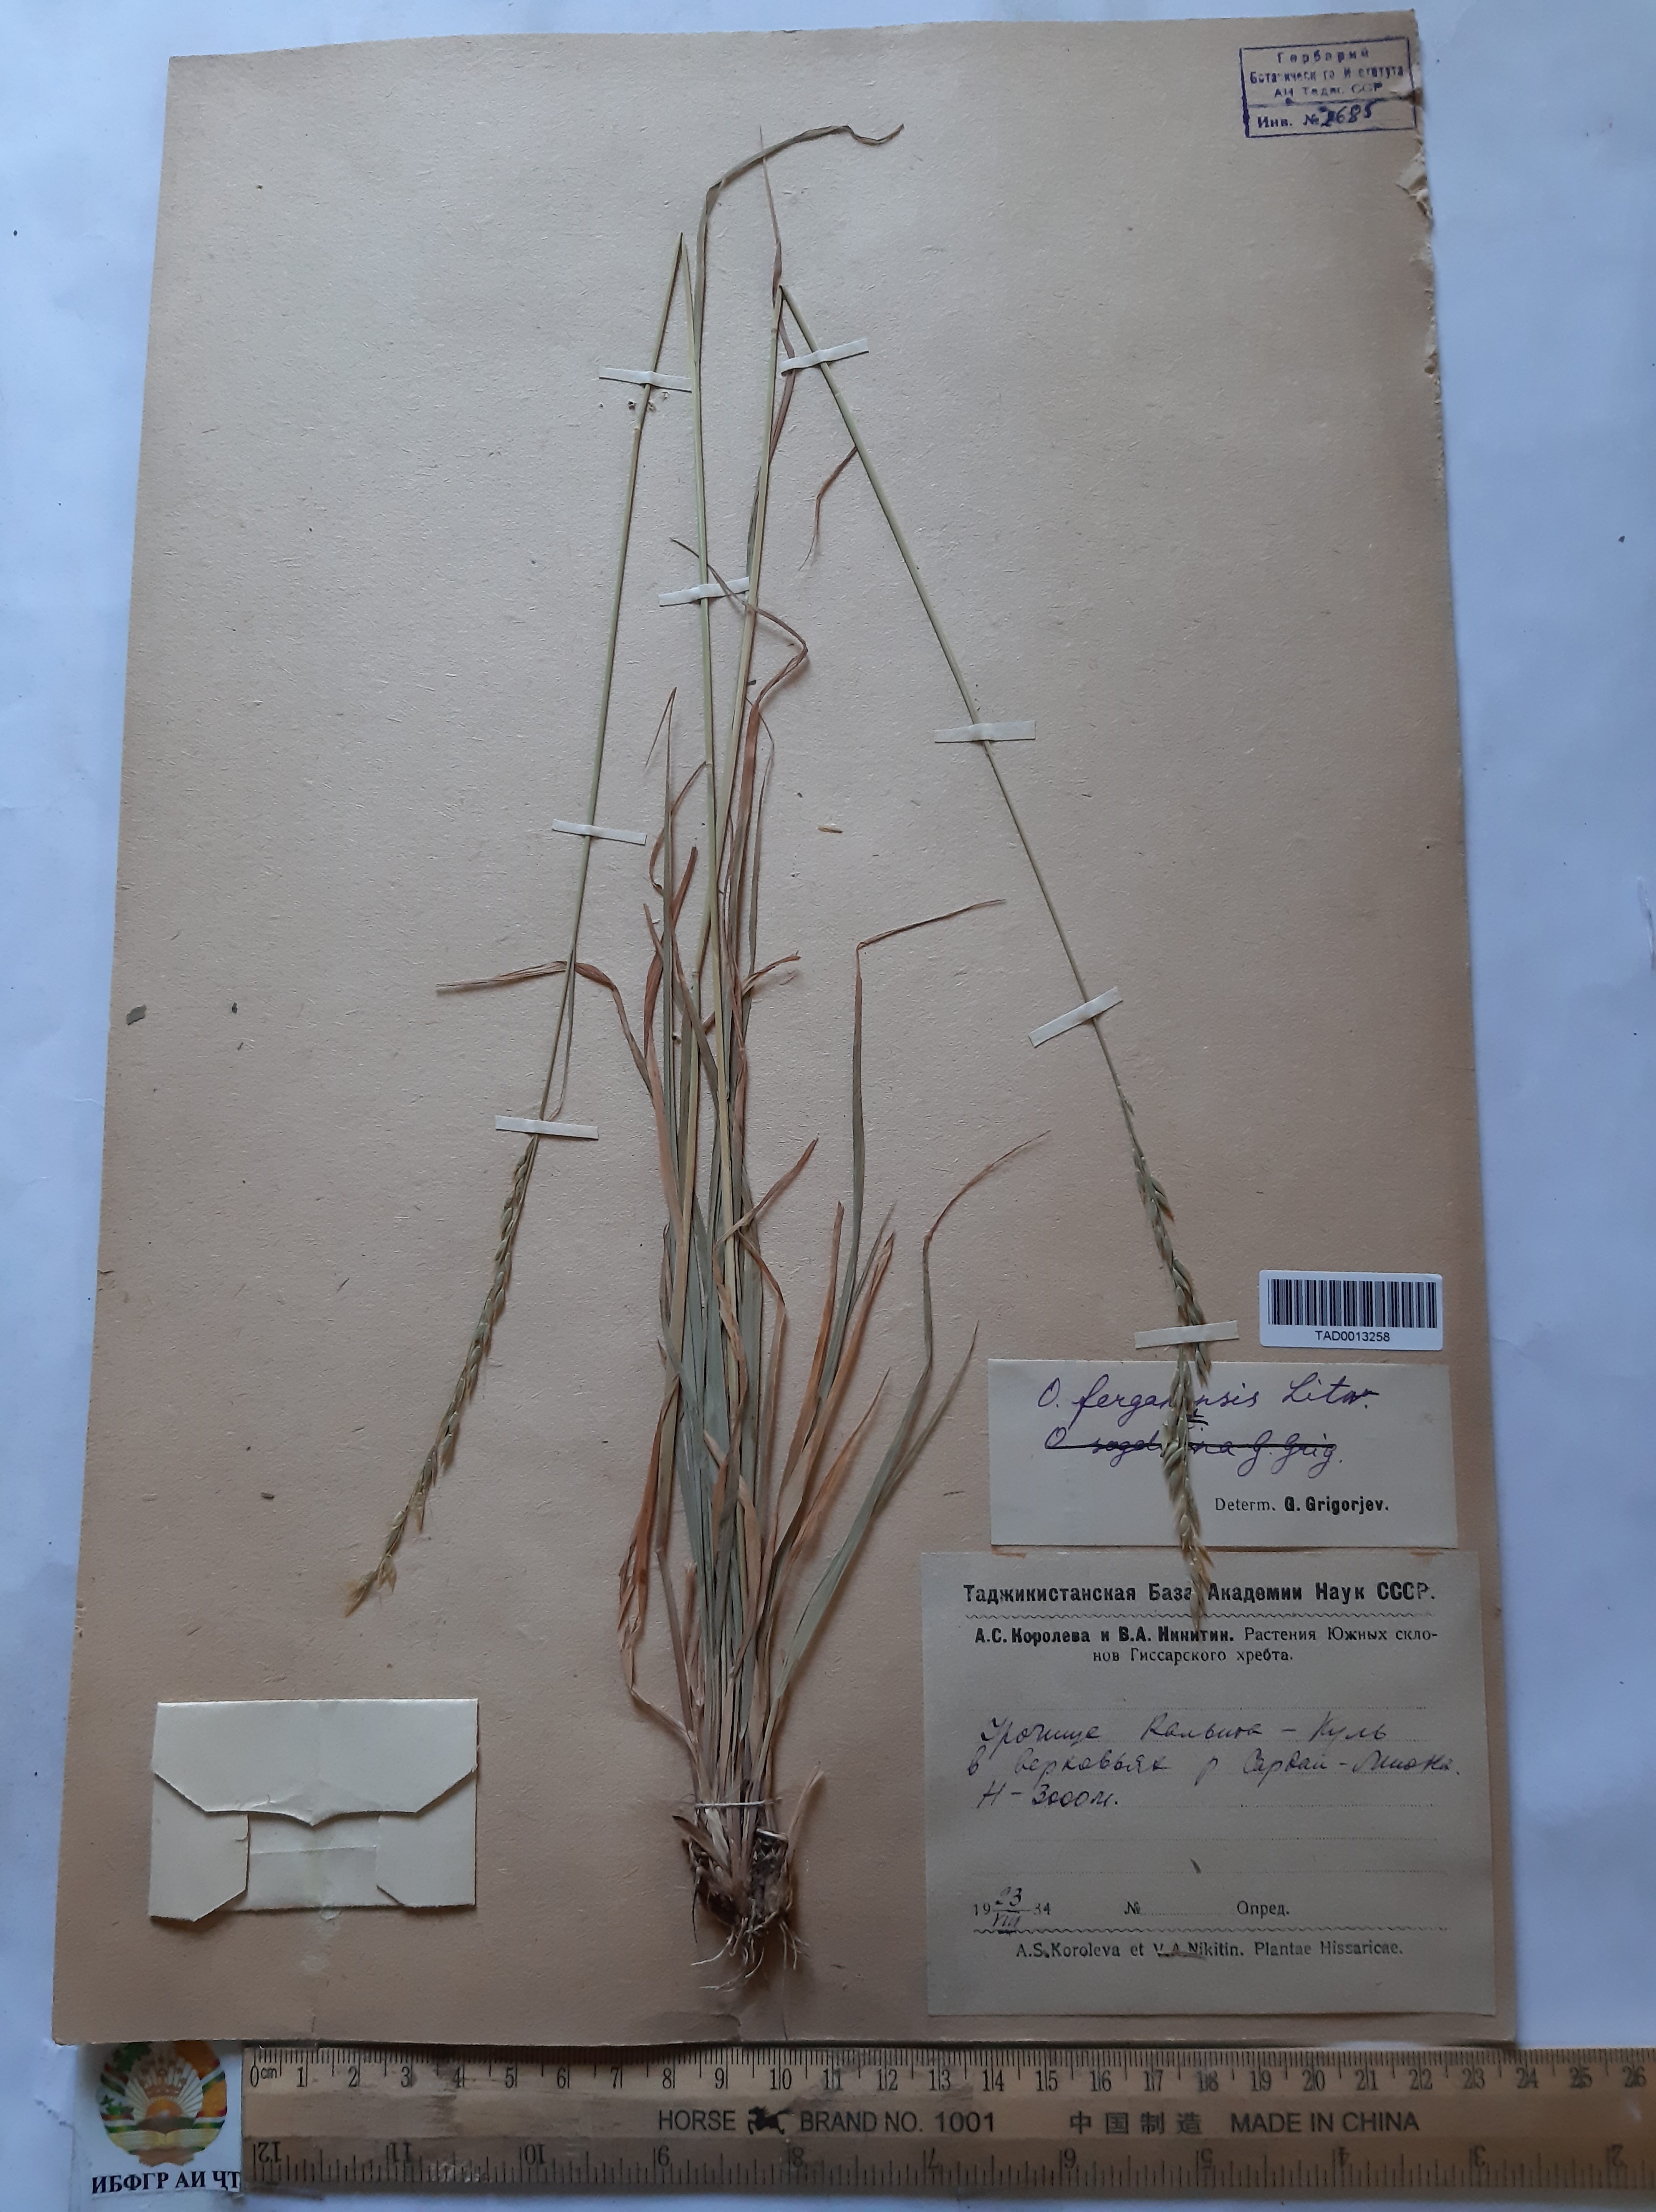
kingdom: Plantae
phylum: Tracheophyta
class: Liliopsida
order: Poales
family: Poaceae
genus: Piptatherum
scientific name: Piptatherum ferganense
